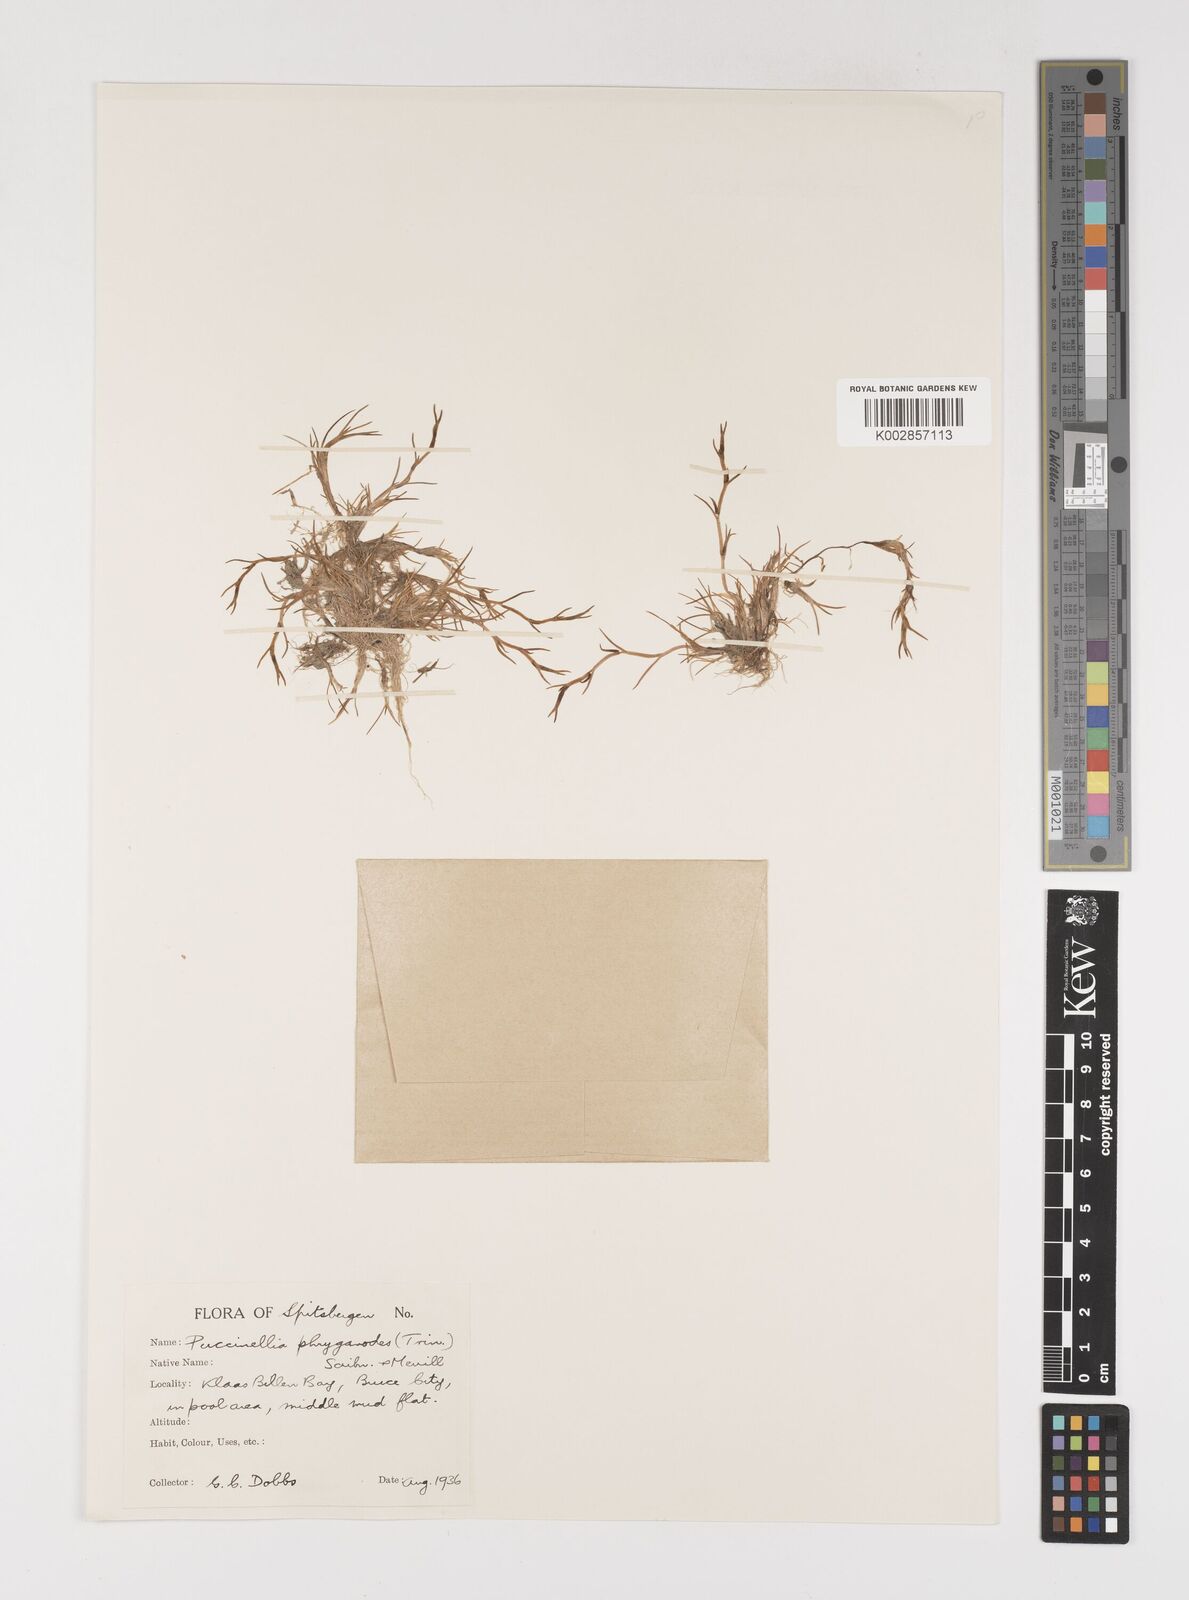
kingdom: Plantae
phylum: Tracheophyta
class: Liliopsida
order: Poales
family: Poaceae
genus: Puccinellia
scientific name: Puccinellia phryganodes
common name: Creeping alkaligrass
